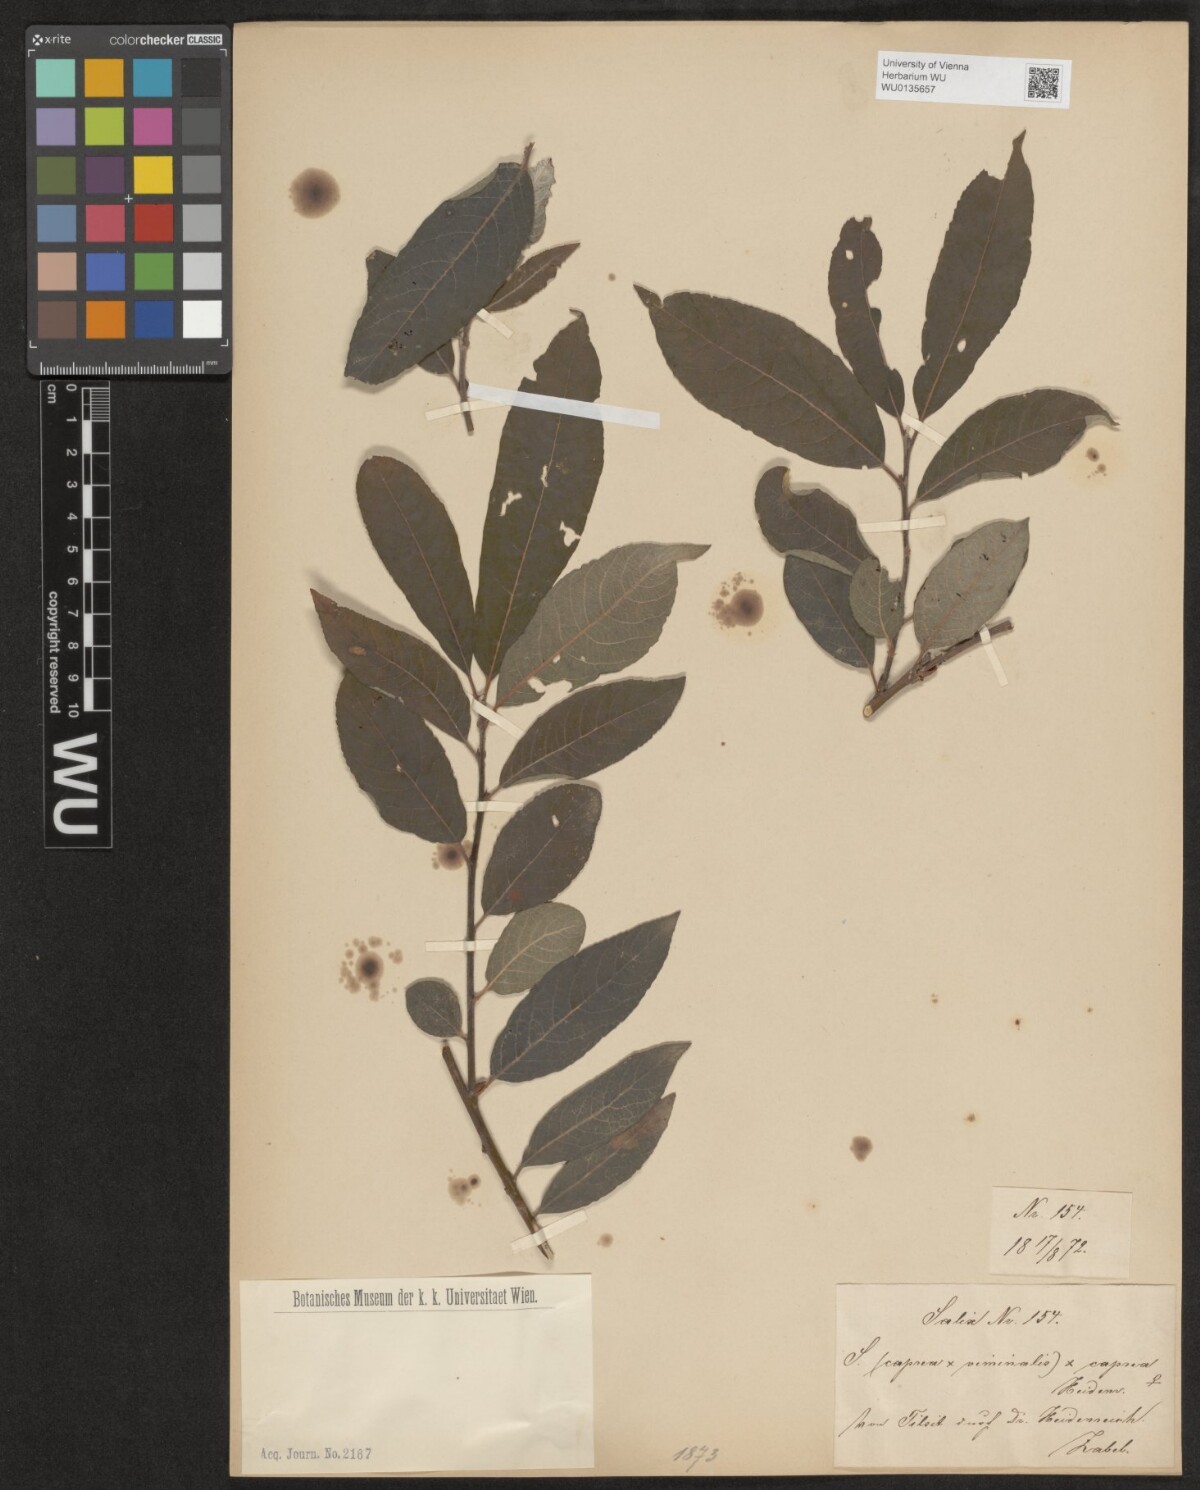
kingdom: Plantae
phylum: Tracheophyta
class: Magnoliopsida
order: Malpighiales
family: Salicaceae
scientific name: Salicaceae
